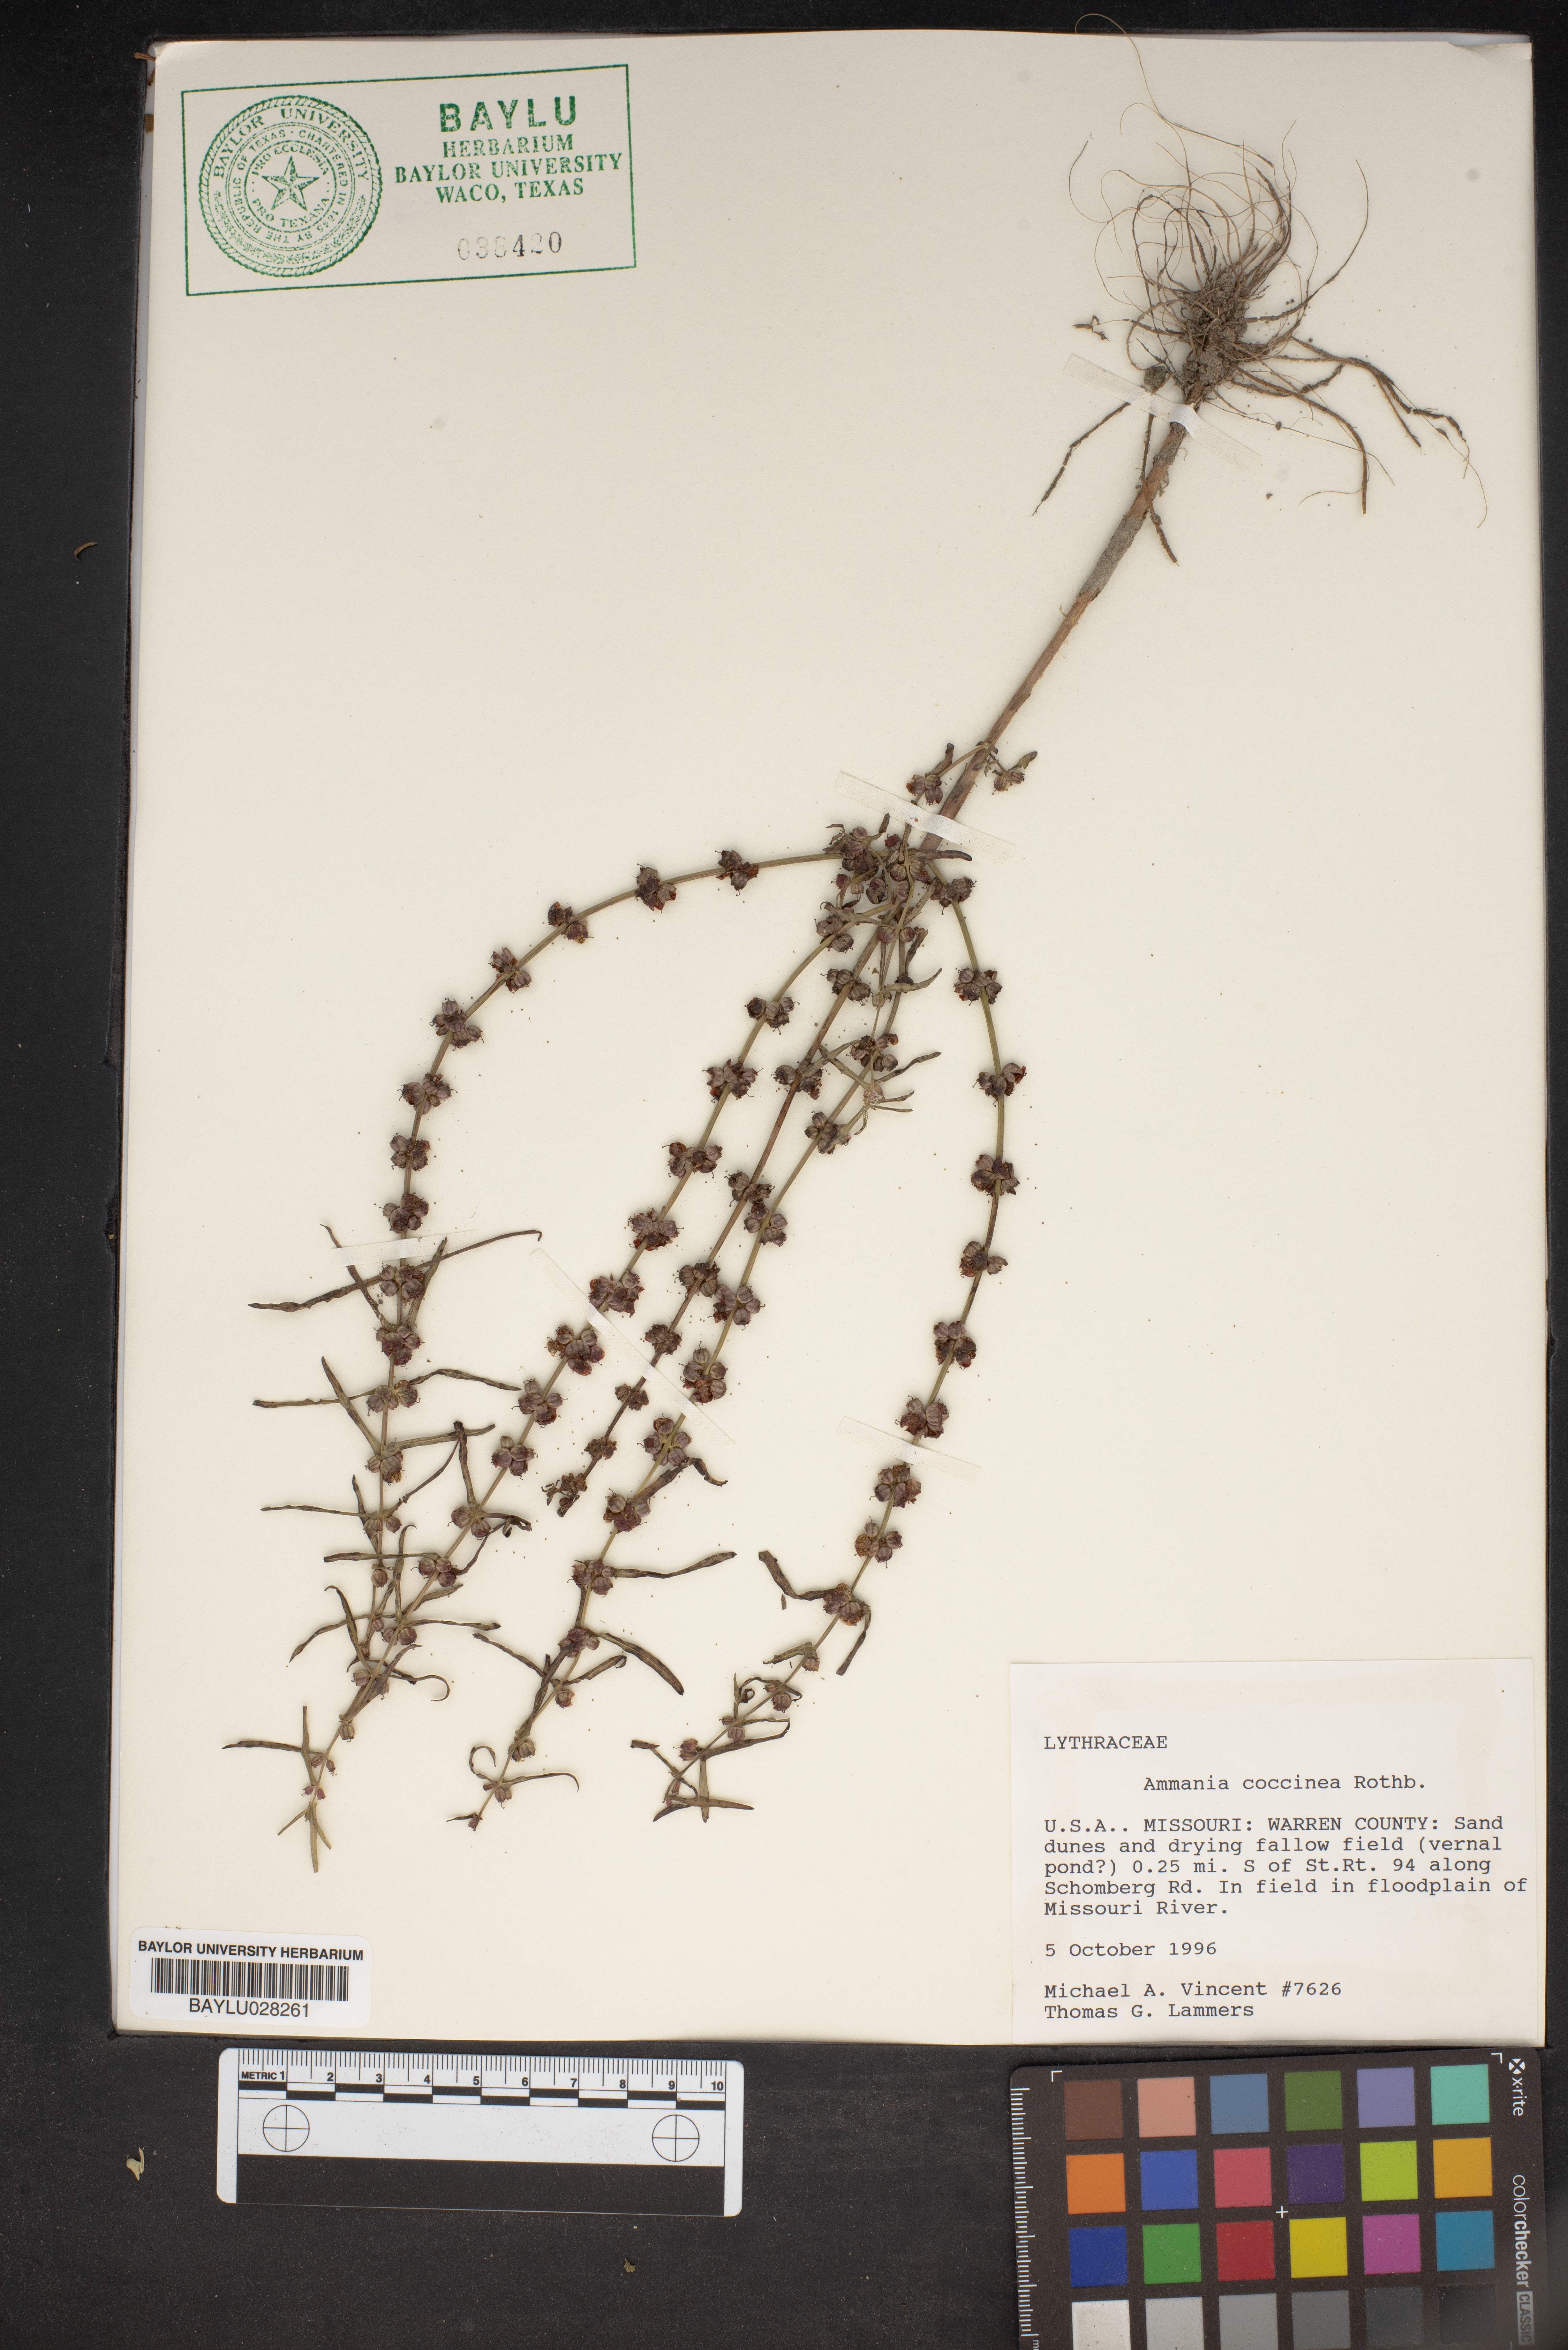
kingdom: Plantae
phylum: Tracheophyta
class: Magnoliopsida
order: Myrtales
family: Lythraceae
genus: Ammannia
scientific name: Ammannia coccinea
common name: Valley redstem
